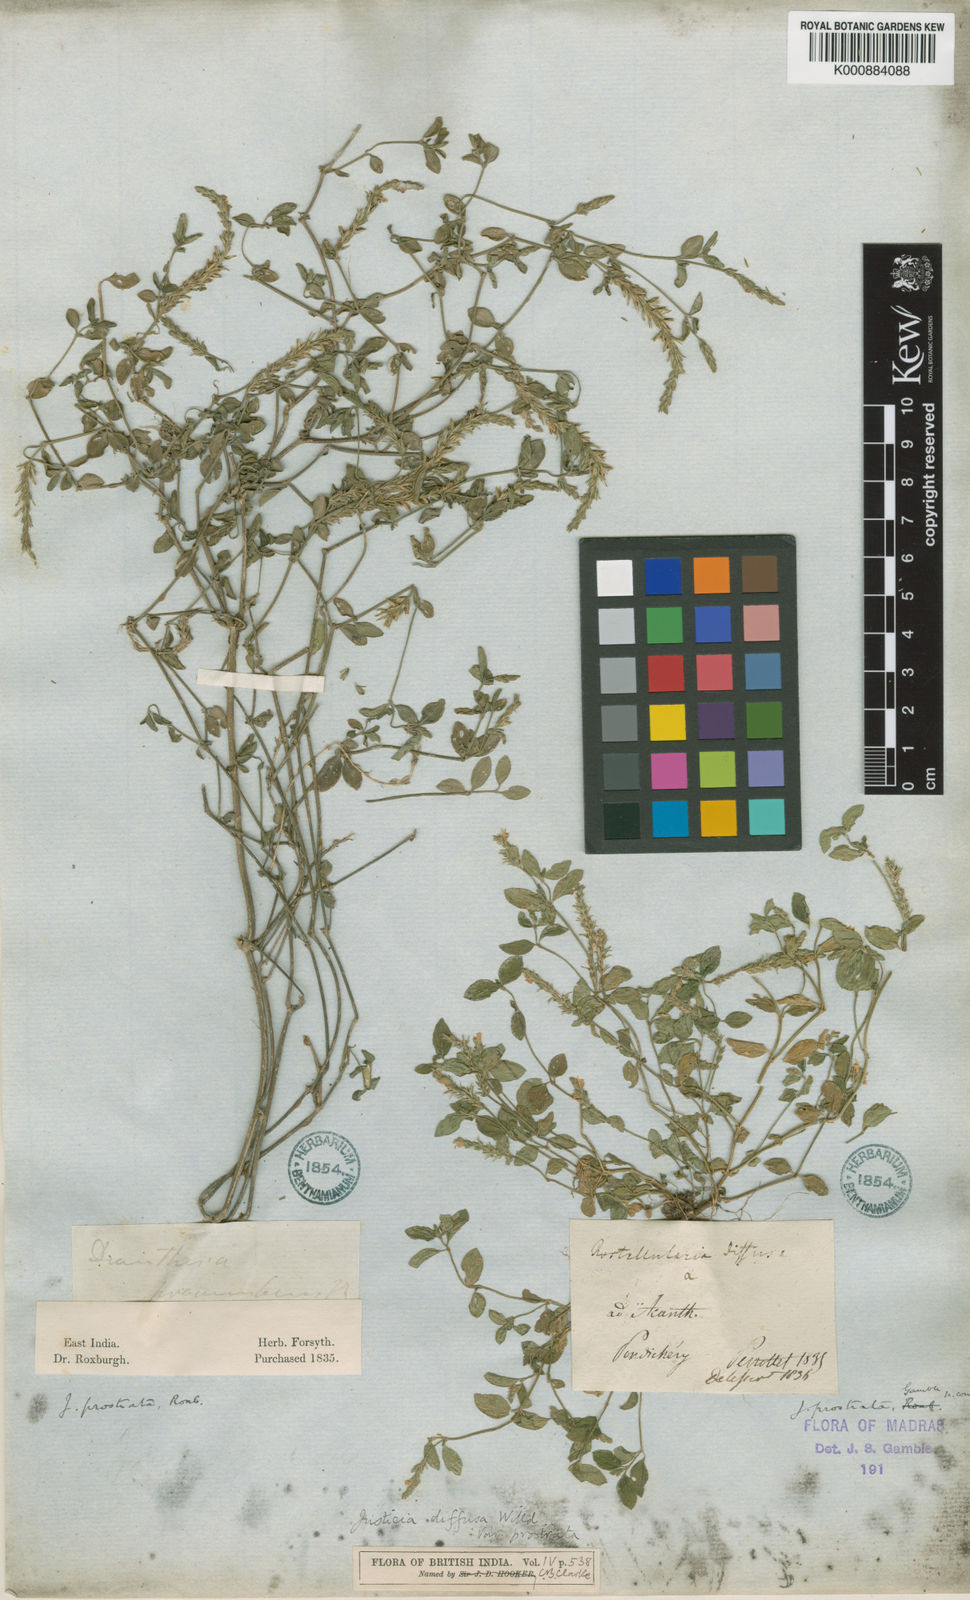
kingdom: Plantae
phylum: Tracheophyta
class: Magnoliopsida
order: Lamiales
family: Acanthaceae
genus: Rostellularia
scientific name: Rostellularia prostrata
